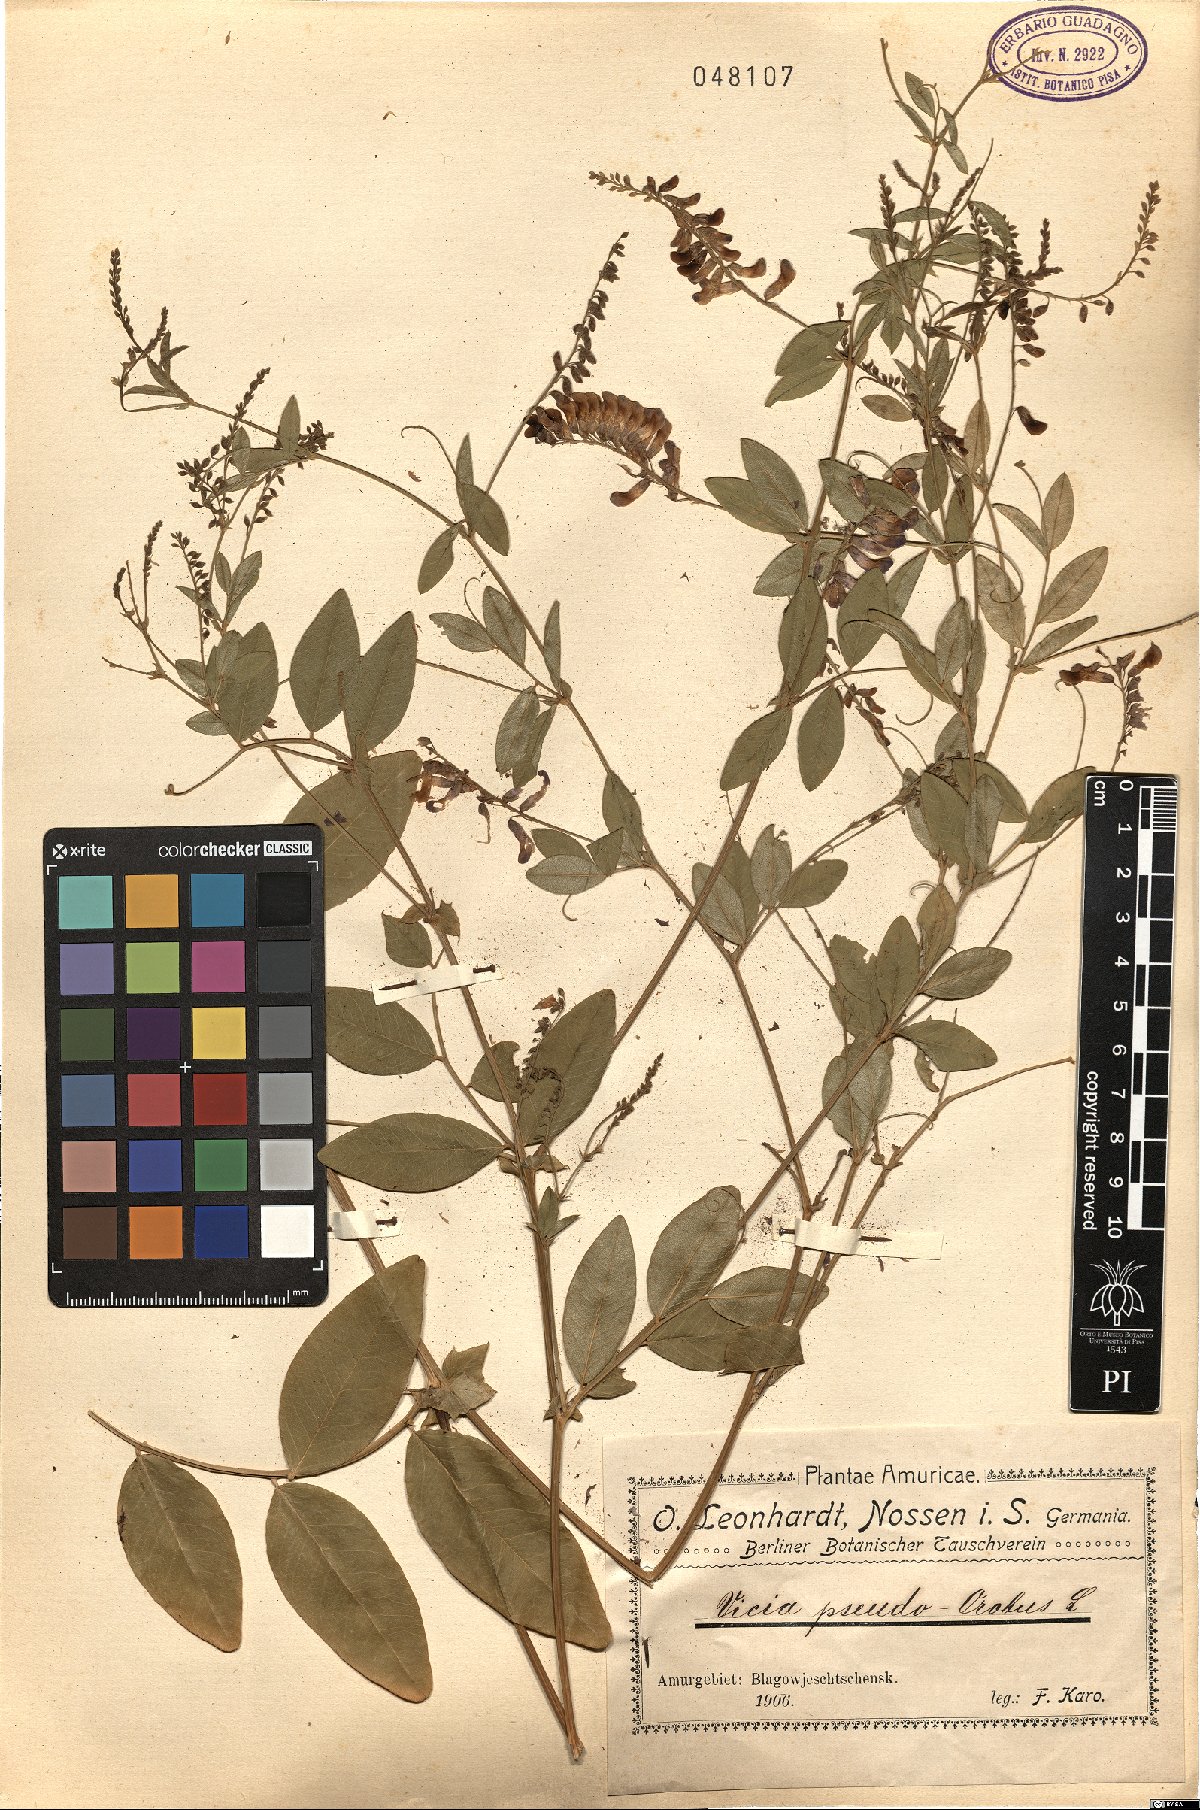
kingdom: Plantae
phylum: Tracheophyta
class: Magnoliopsida
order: Fabales
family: Fabaceae
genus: Vicia
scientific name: Vicia pseudo-orobus
